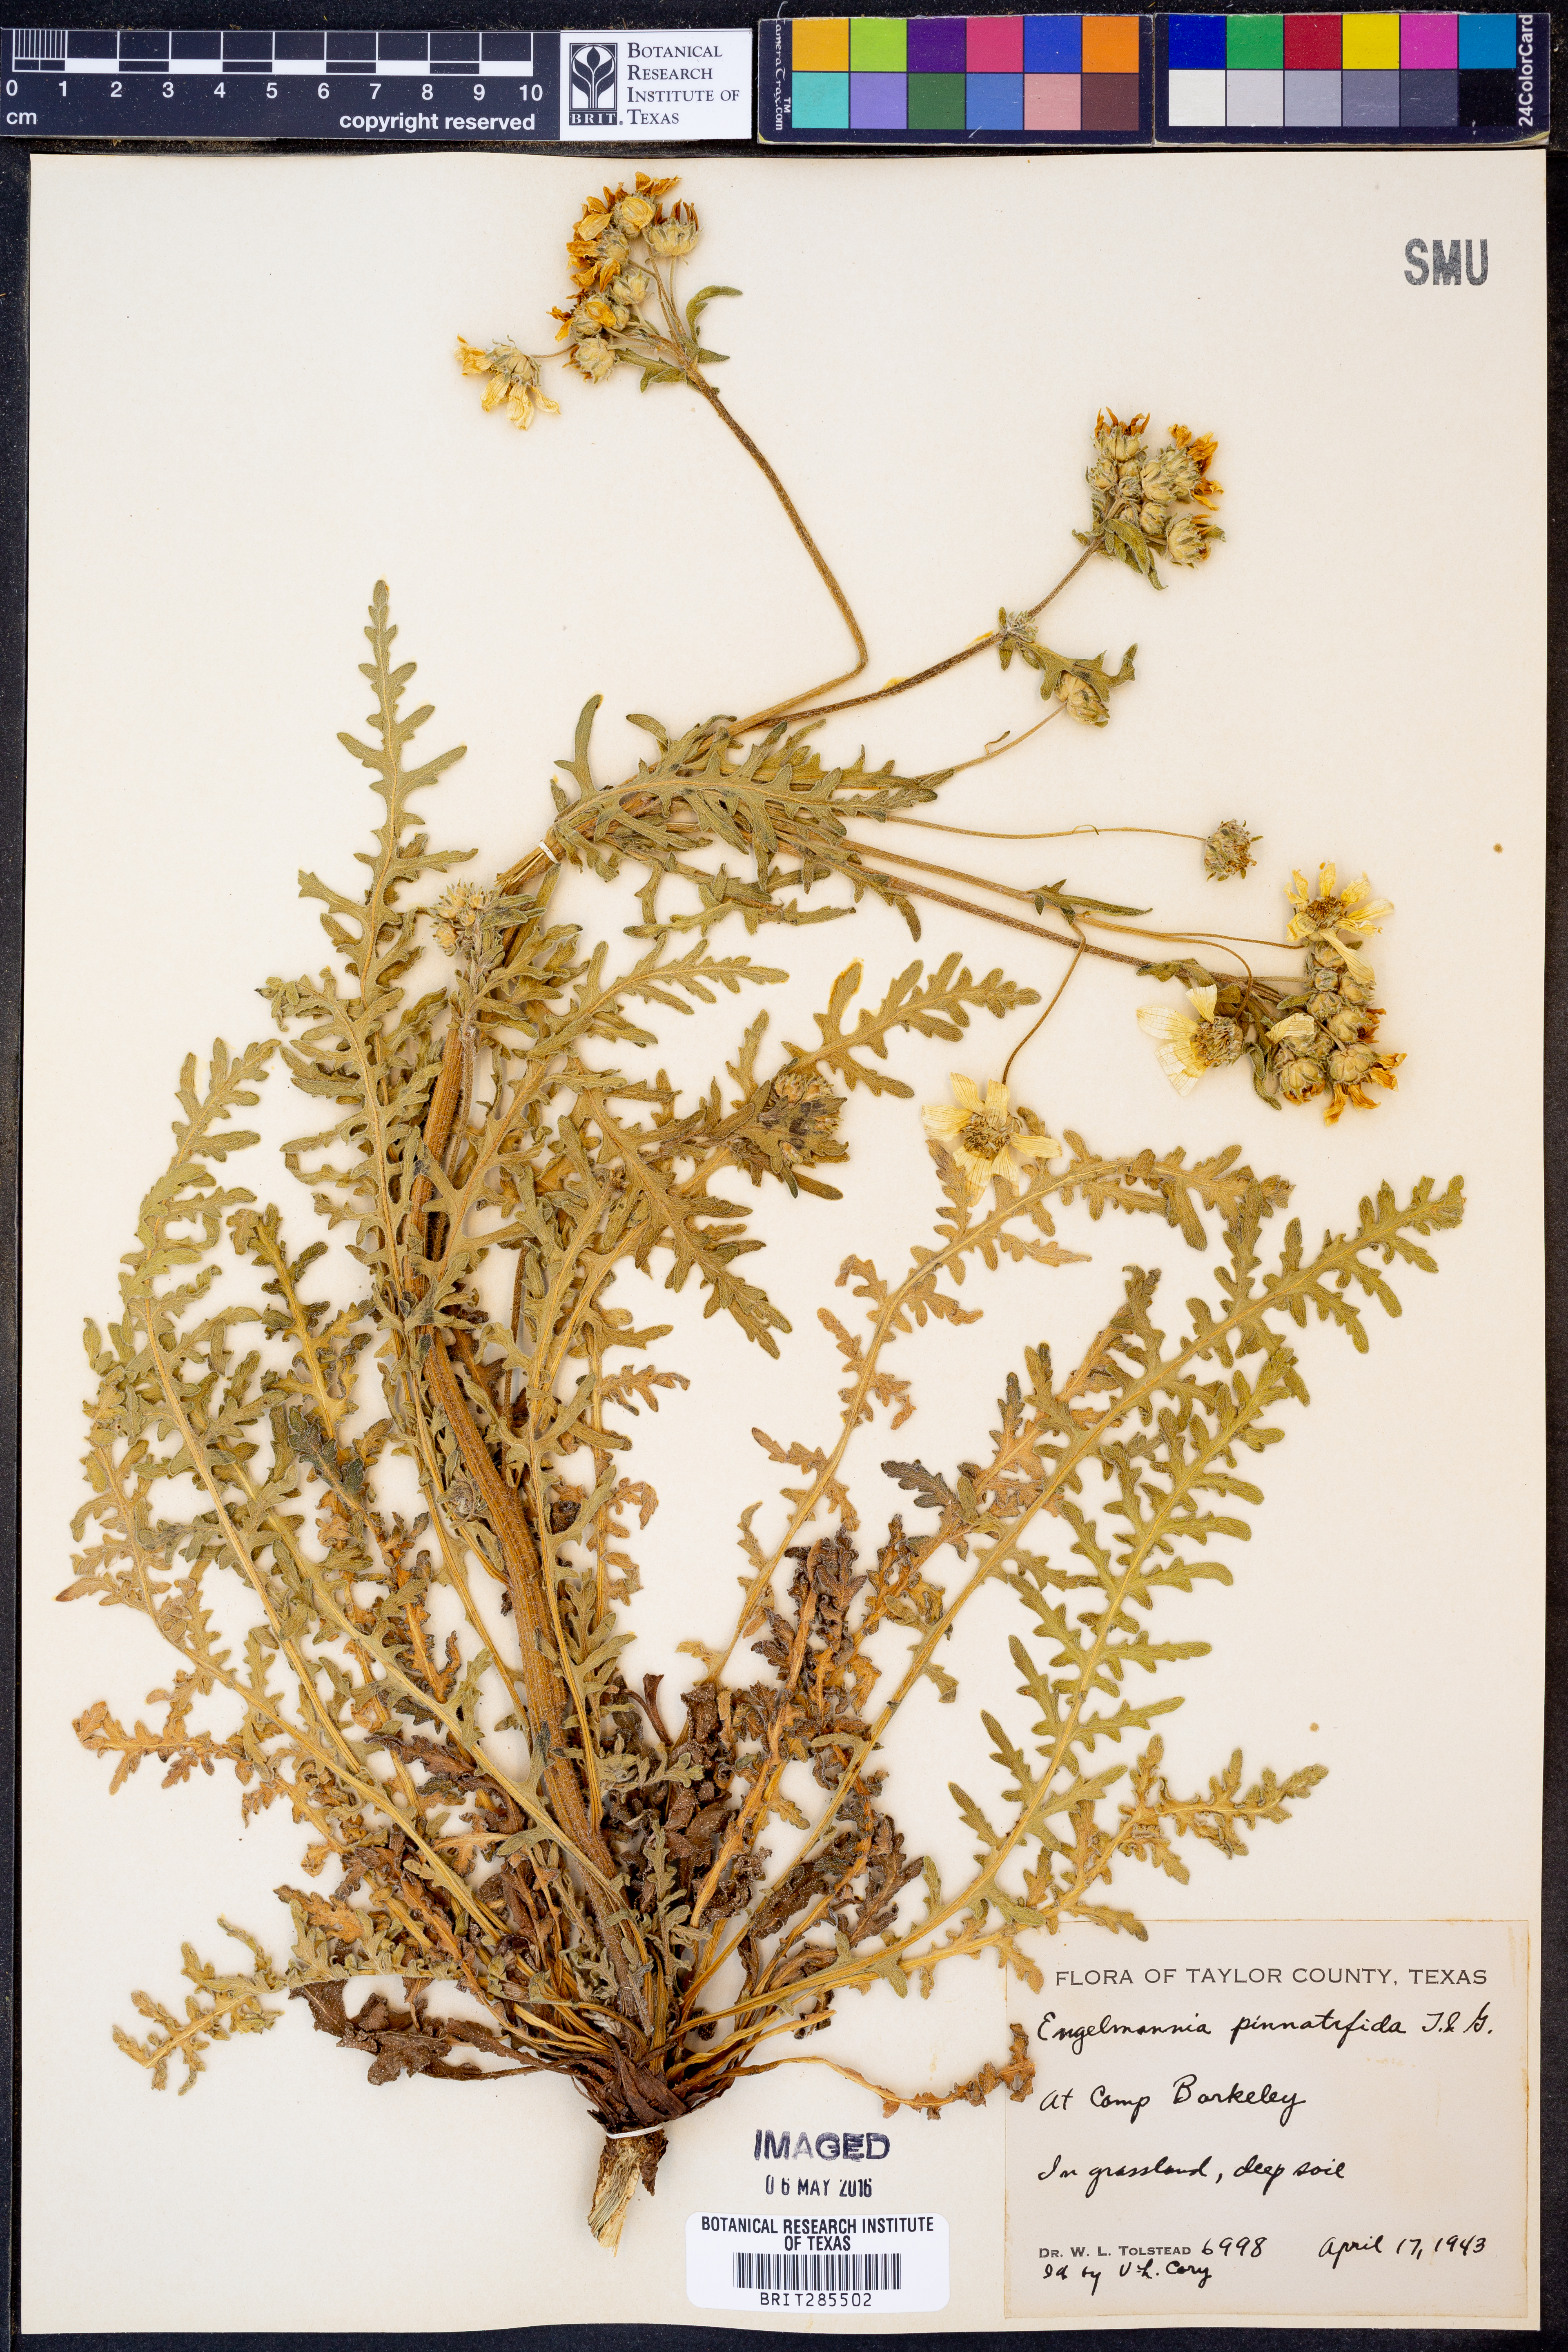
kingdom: Plantae
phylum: Tracheophyta
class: Magnoliopsida
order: Asterales
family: Asteraceae
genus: Engelmannia
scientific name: Engelmannia peristenia
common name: Engelmann's daisy
